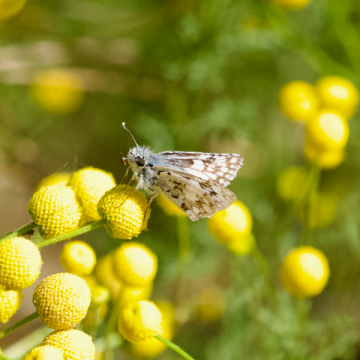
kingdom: Animalia
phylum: Arthropoda
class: Insecta
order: Lepidoptera
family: Hesperiidae
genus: Pyrgus
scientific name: Pyrgus communis
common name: White Checkered-Skipper
